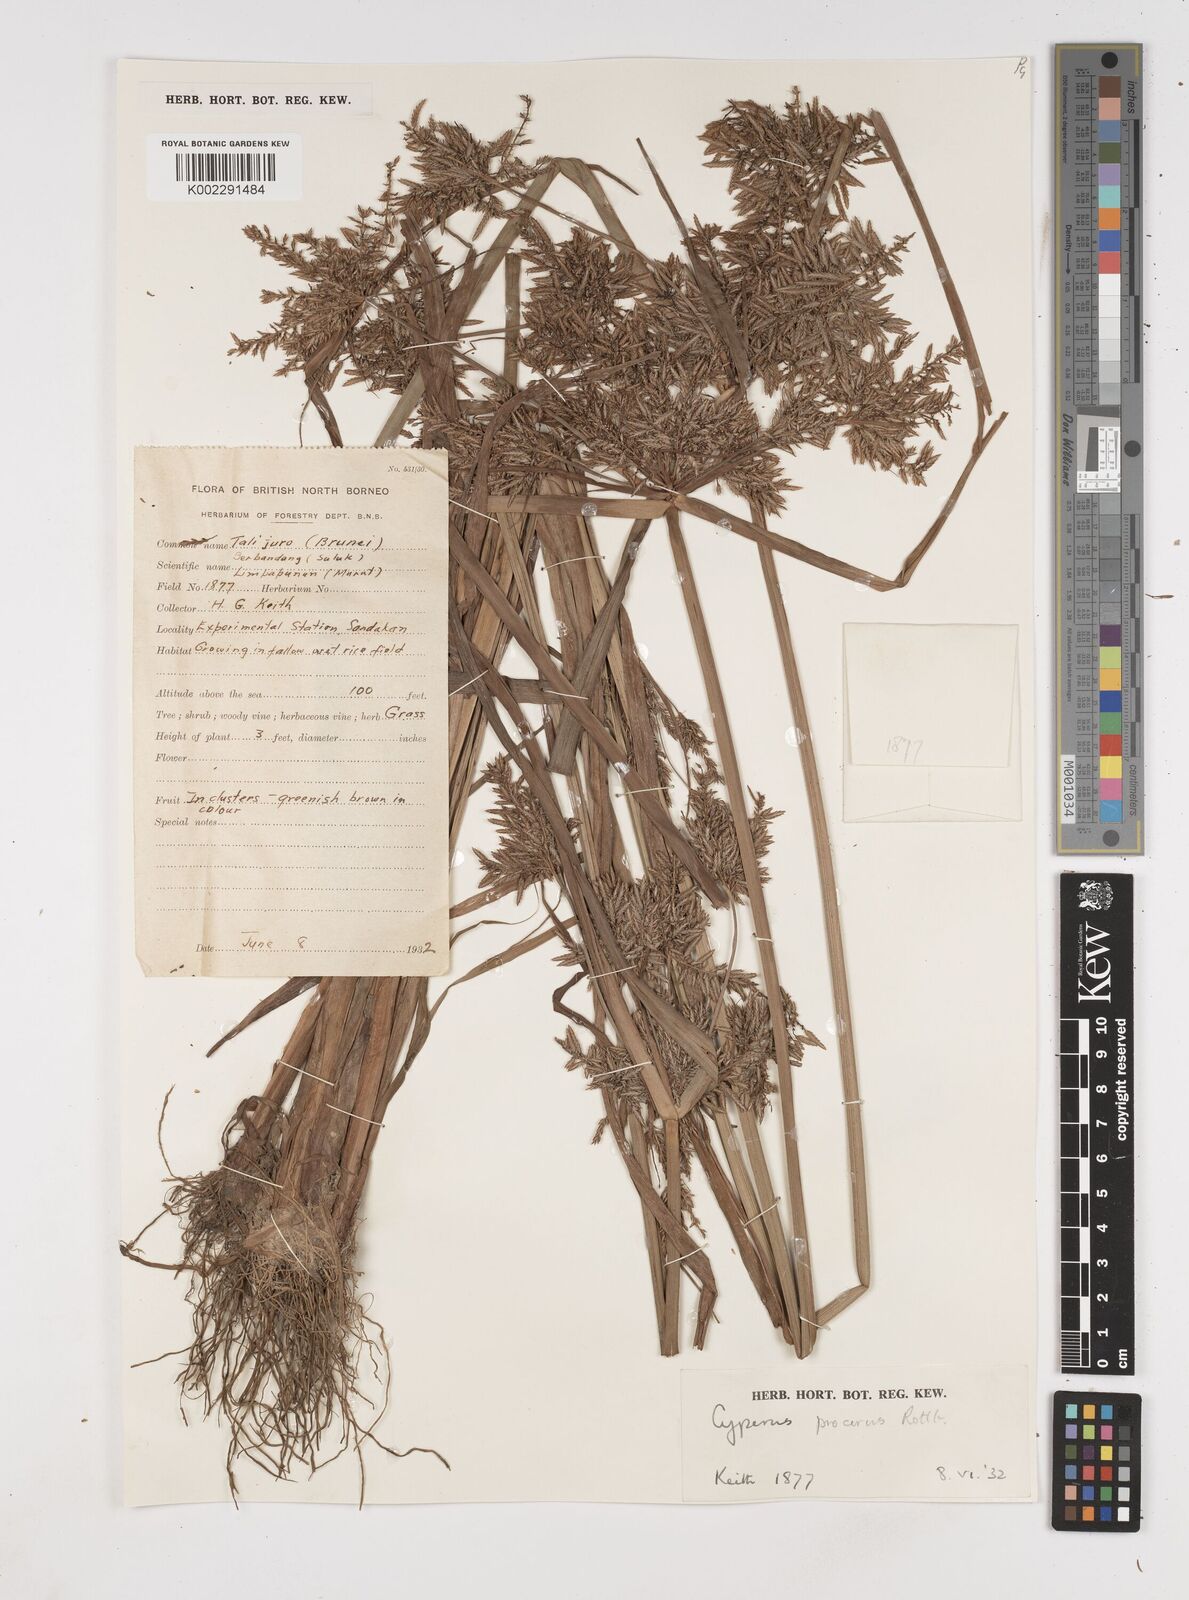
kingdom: Plantae
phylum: Tracheophyta
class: Liliopsida
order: Poales
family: Cyperaceae
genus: Cyperus
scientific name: Cyperus procerus
